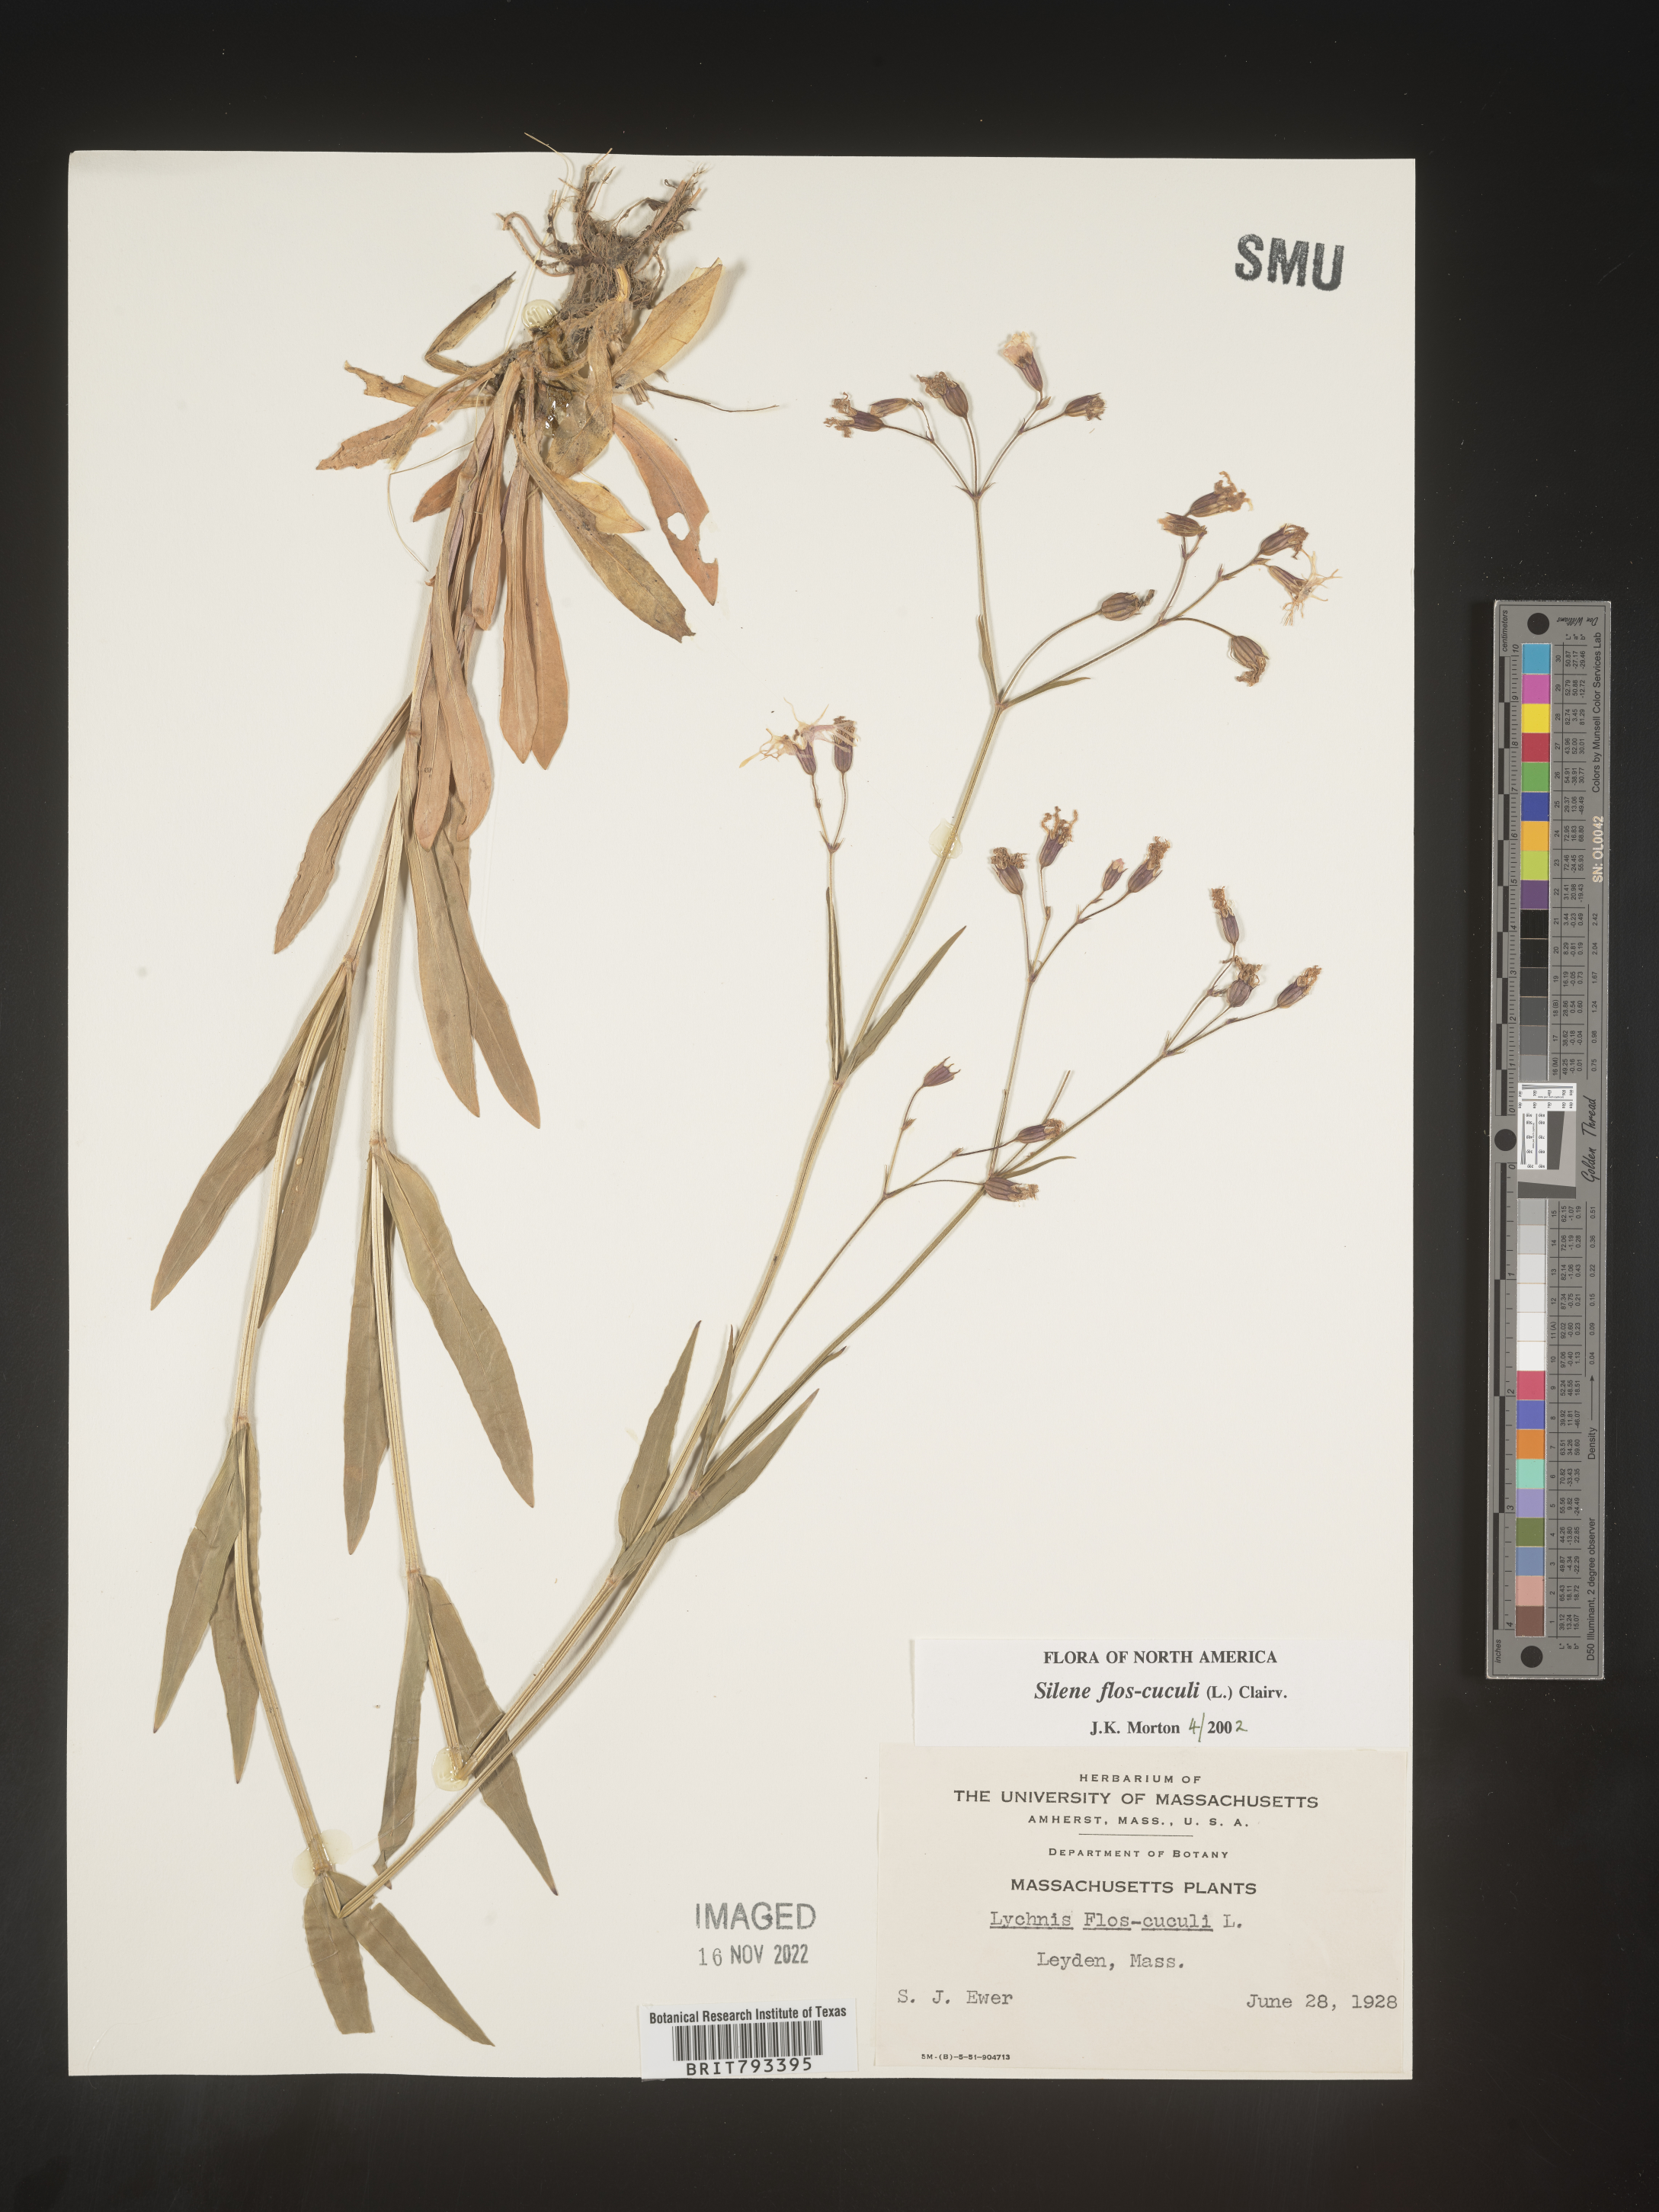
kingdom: Plantae
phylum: Tracheophyta
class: Magnoliopsida
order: Caryophyllales
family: Caryophyllaceae
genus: Silene
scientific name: Silene flos-cuculi
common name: Ragged-robin
